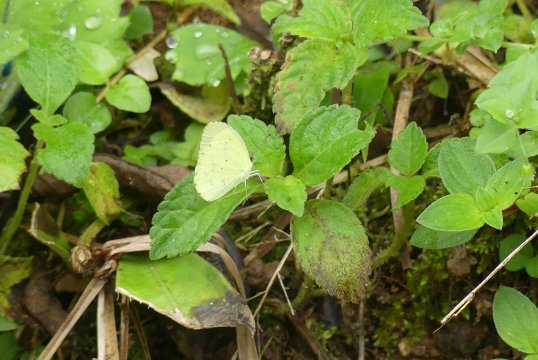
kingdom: Animalia
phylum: Arthropoda
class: Insecta
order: Lepidoptera
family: Pieridae
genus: Pyrisitia
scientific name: Pyrisitia nise
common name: Mimosa Yellow
